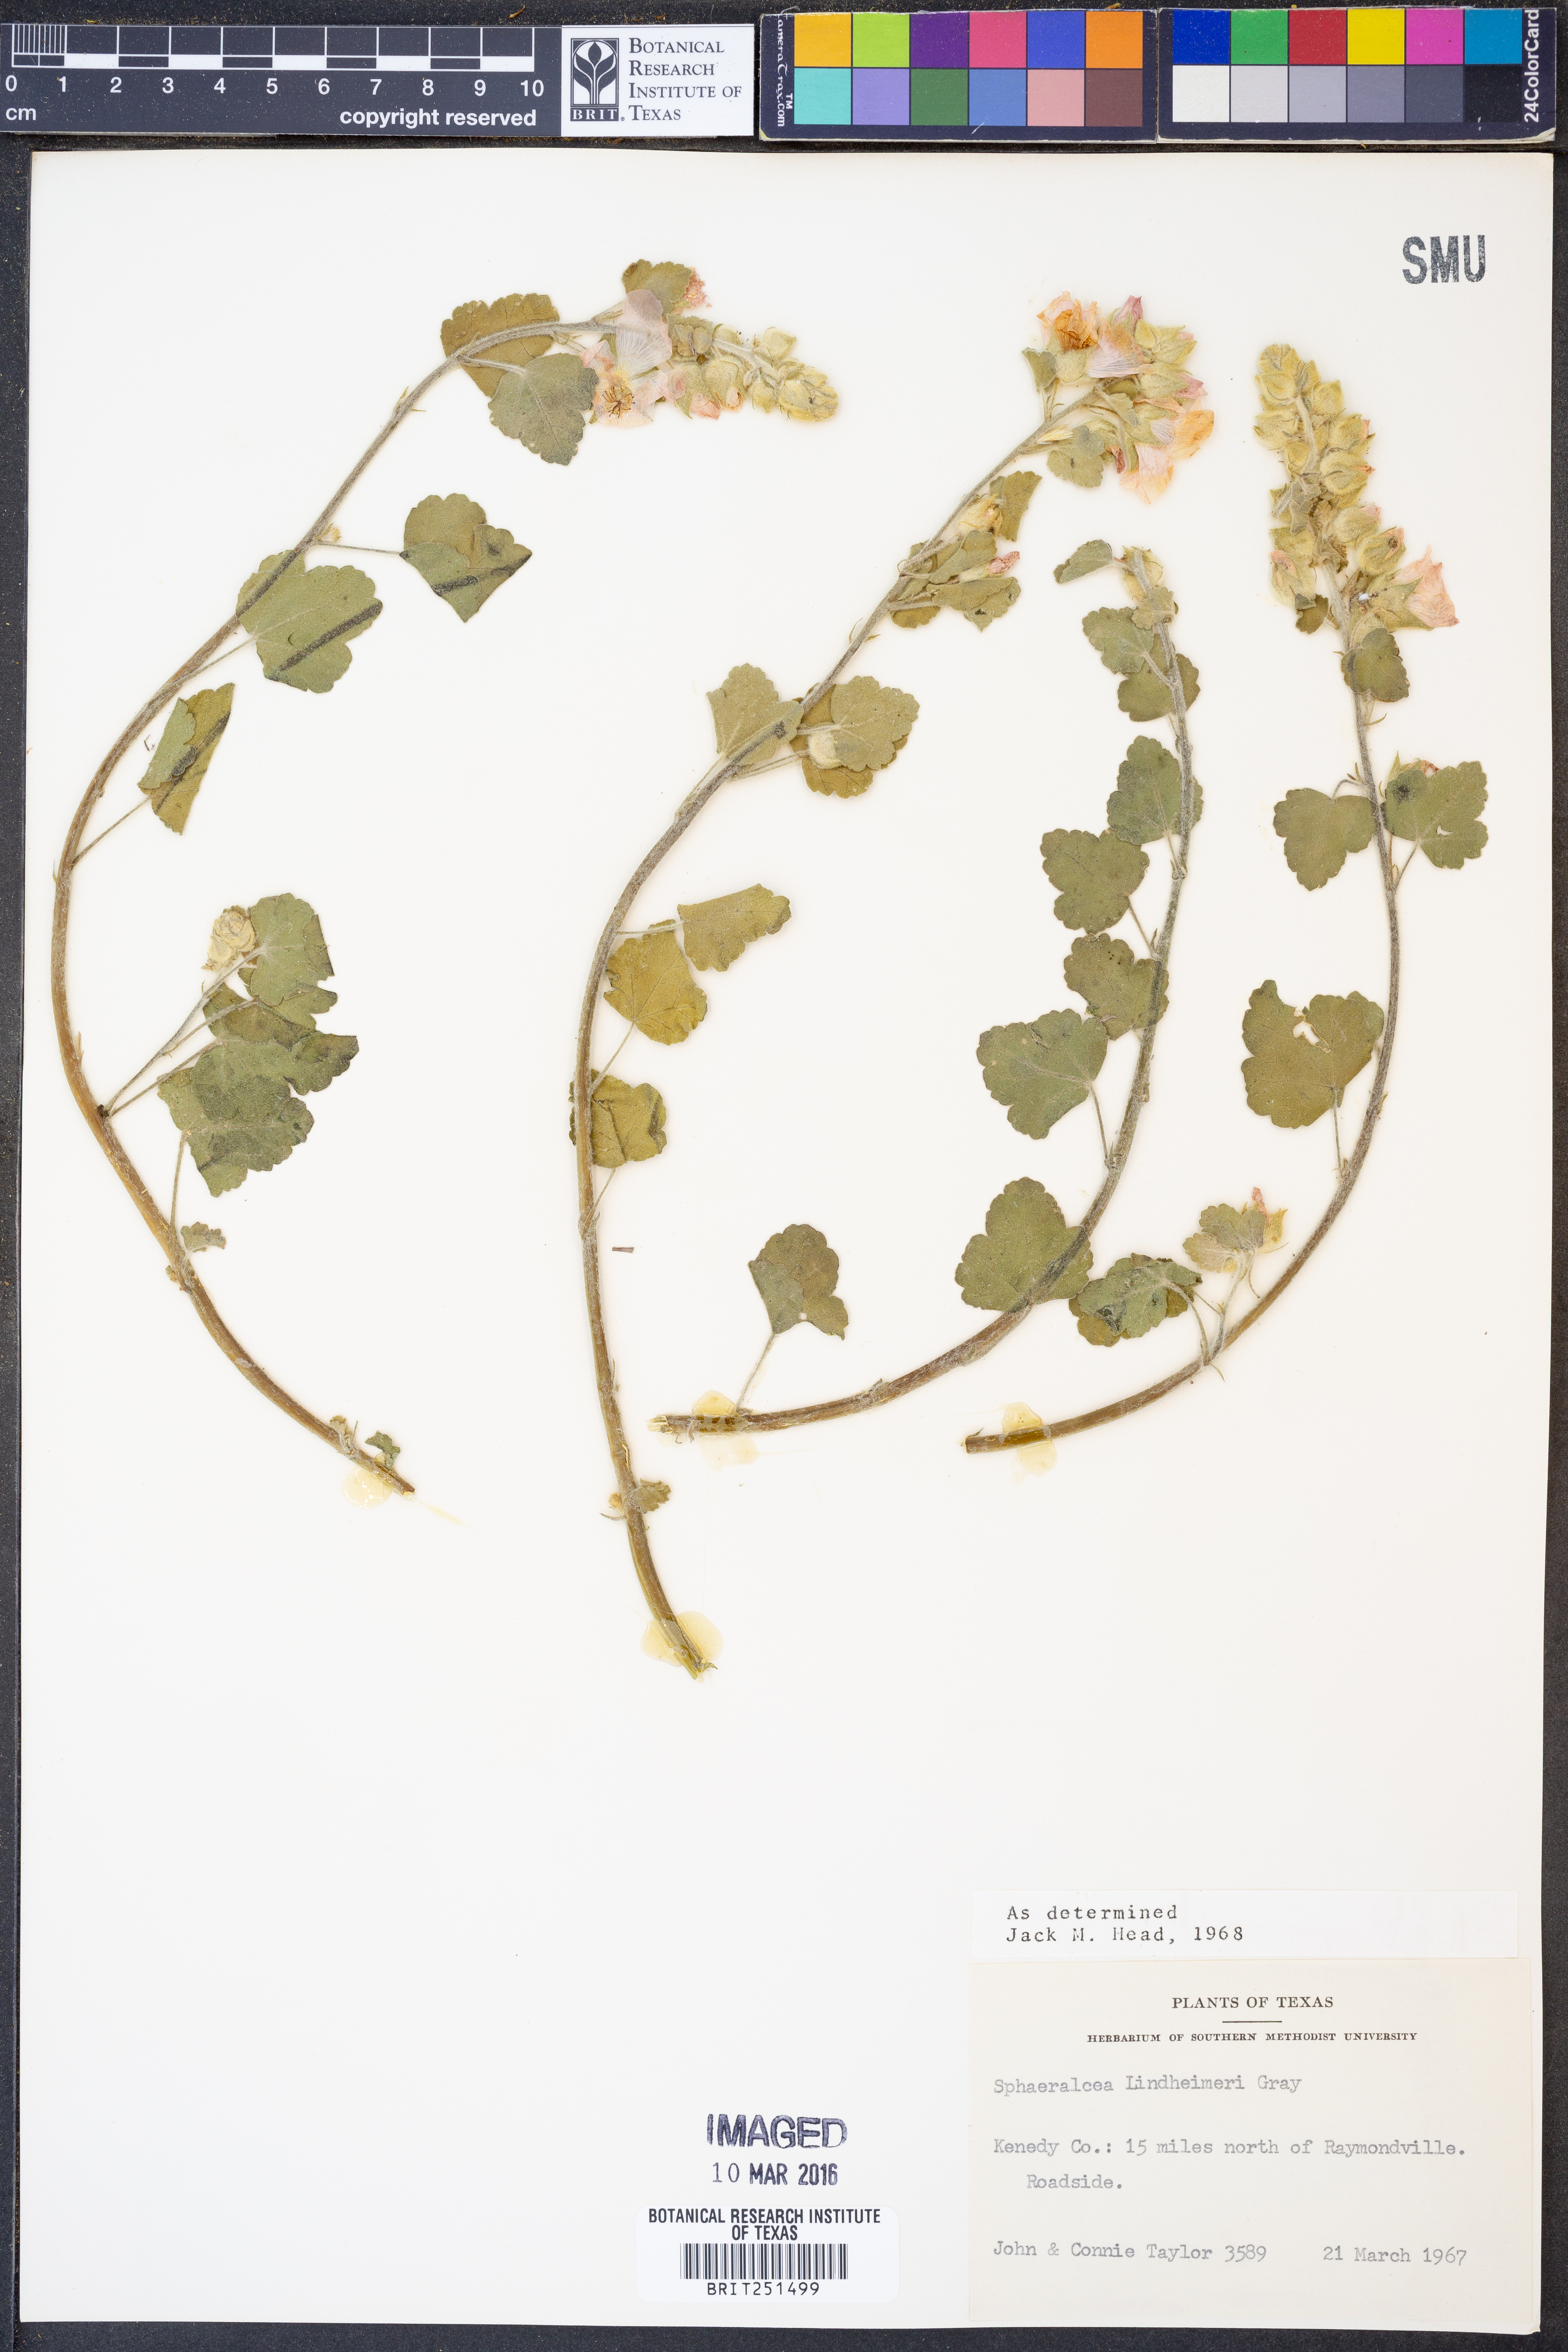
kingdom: Plantae
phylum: Tracheophyta
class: Magnoliopsida
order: Malvales
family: Malvaceae
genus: Sphaeralcea
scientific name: Sphaeralcea lindheimeri
